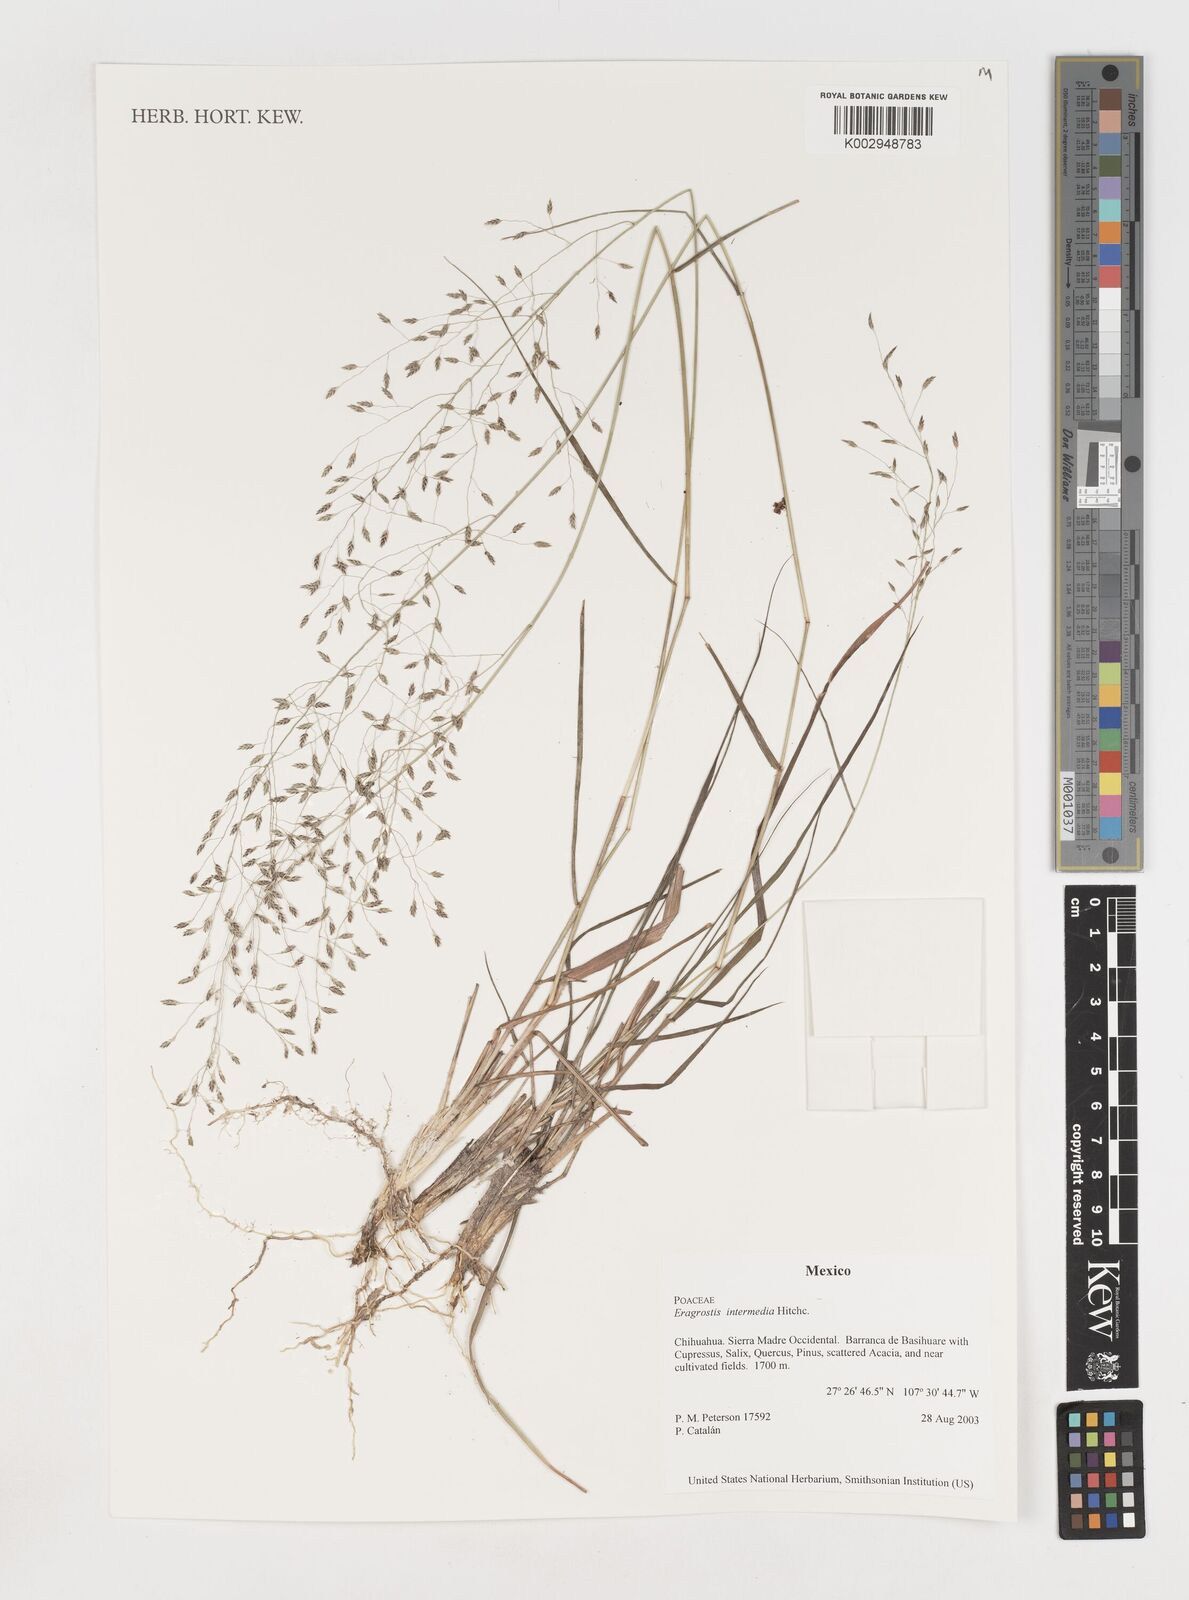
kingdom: Plantae
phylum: Tracheophyta
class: Liliopsida
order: Poales
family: Poaceae
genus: Eragrostis
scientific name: Eragrostis intermedia
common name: Plains love grass
